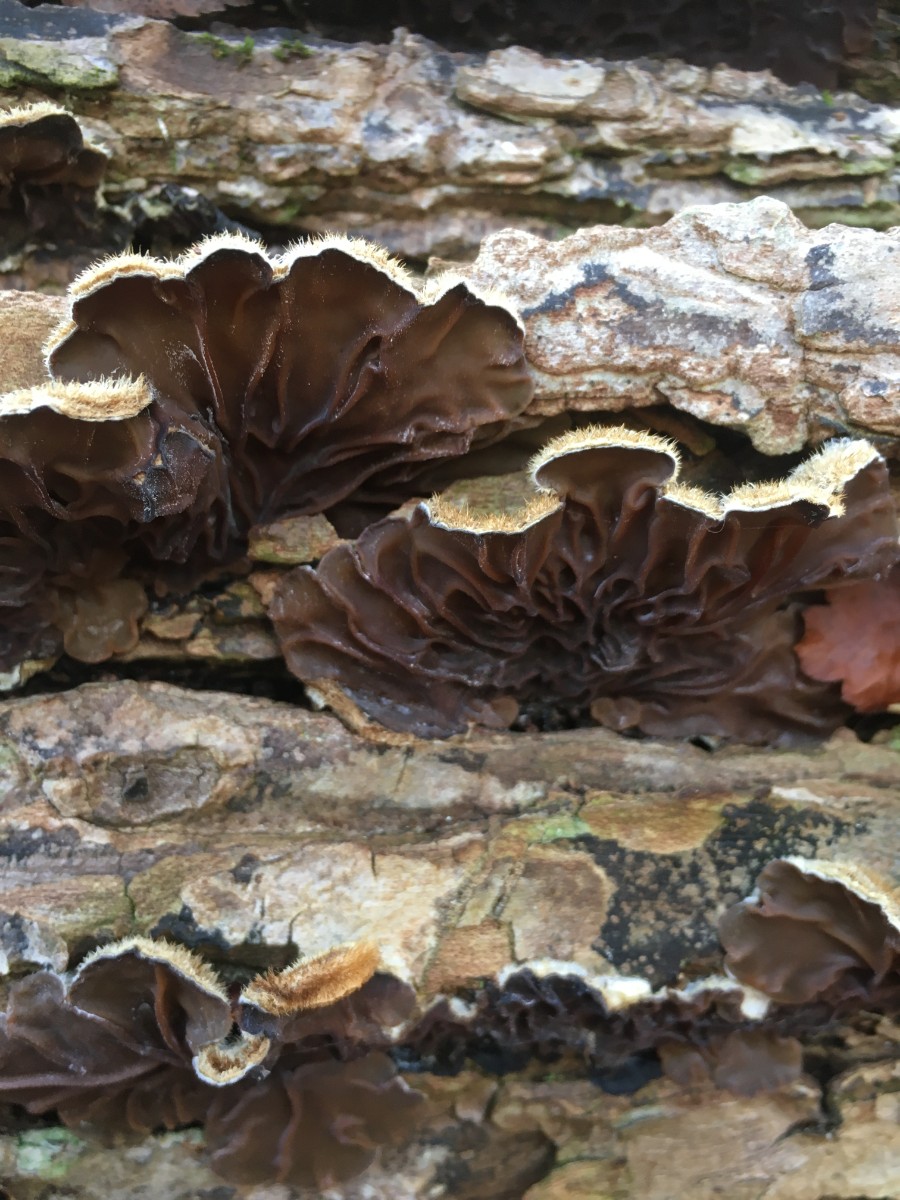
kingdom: Fungi
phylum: Basidiomycota
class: Agaricomycetes
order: Auriculariales
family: Auriculariaceae
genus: Auricularia
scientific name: Auricularia mesenterica
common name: håret judasøre
